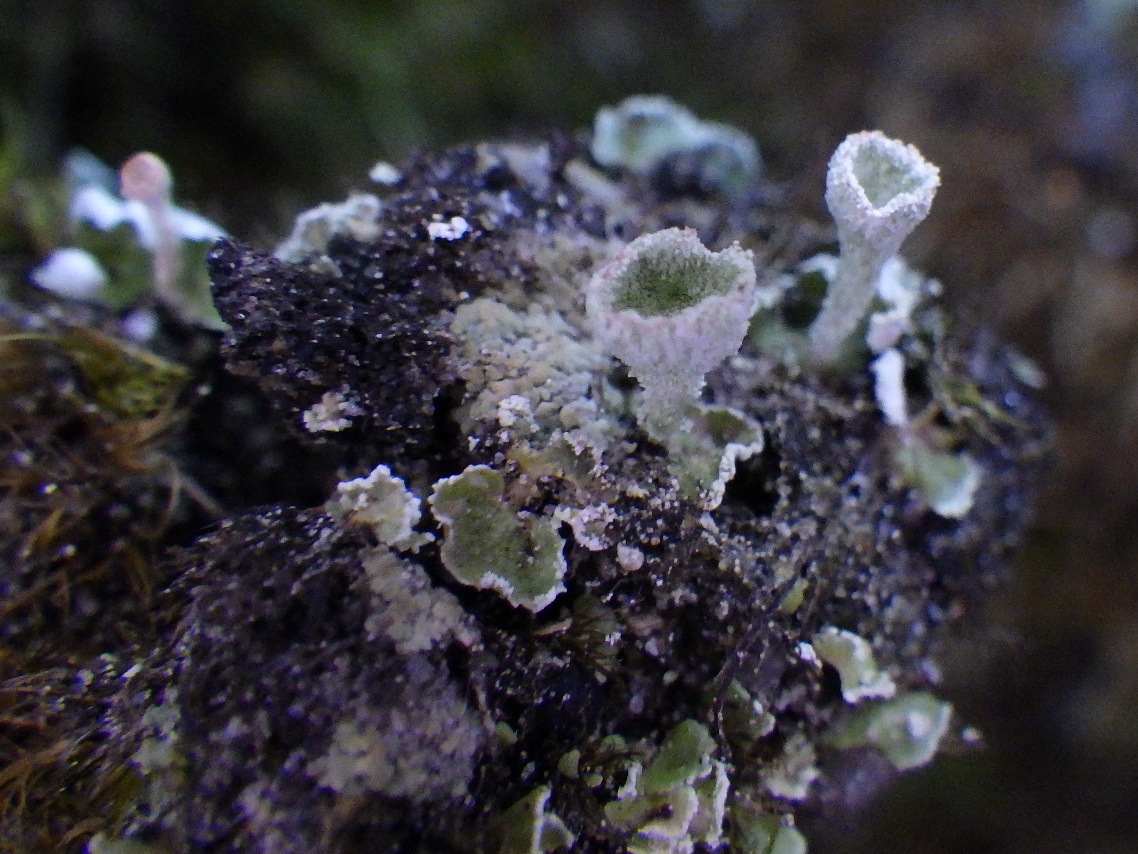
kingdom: Fungi
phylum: Ascomycota
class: Lecanoromycetes
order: Lecanorales
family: Cladoniaceae
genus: Cladonia
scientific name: Cladonia humilis
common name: lav bægerlav
